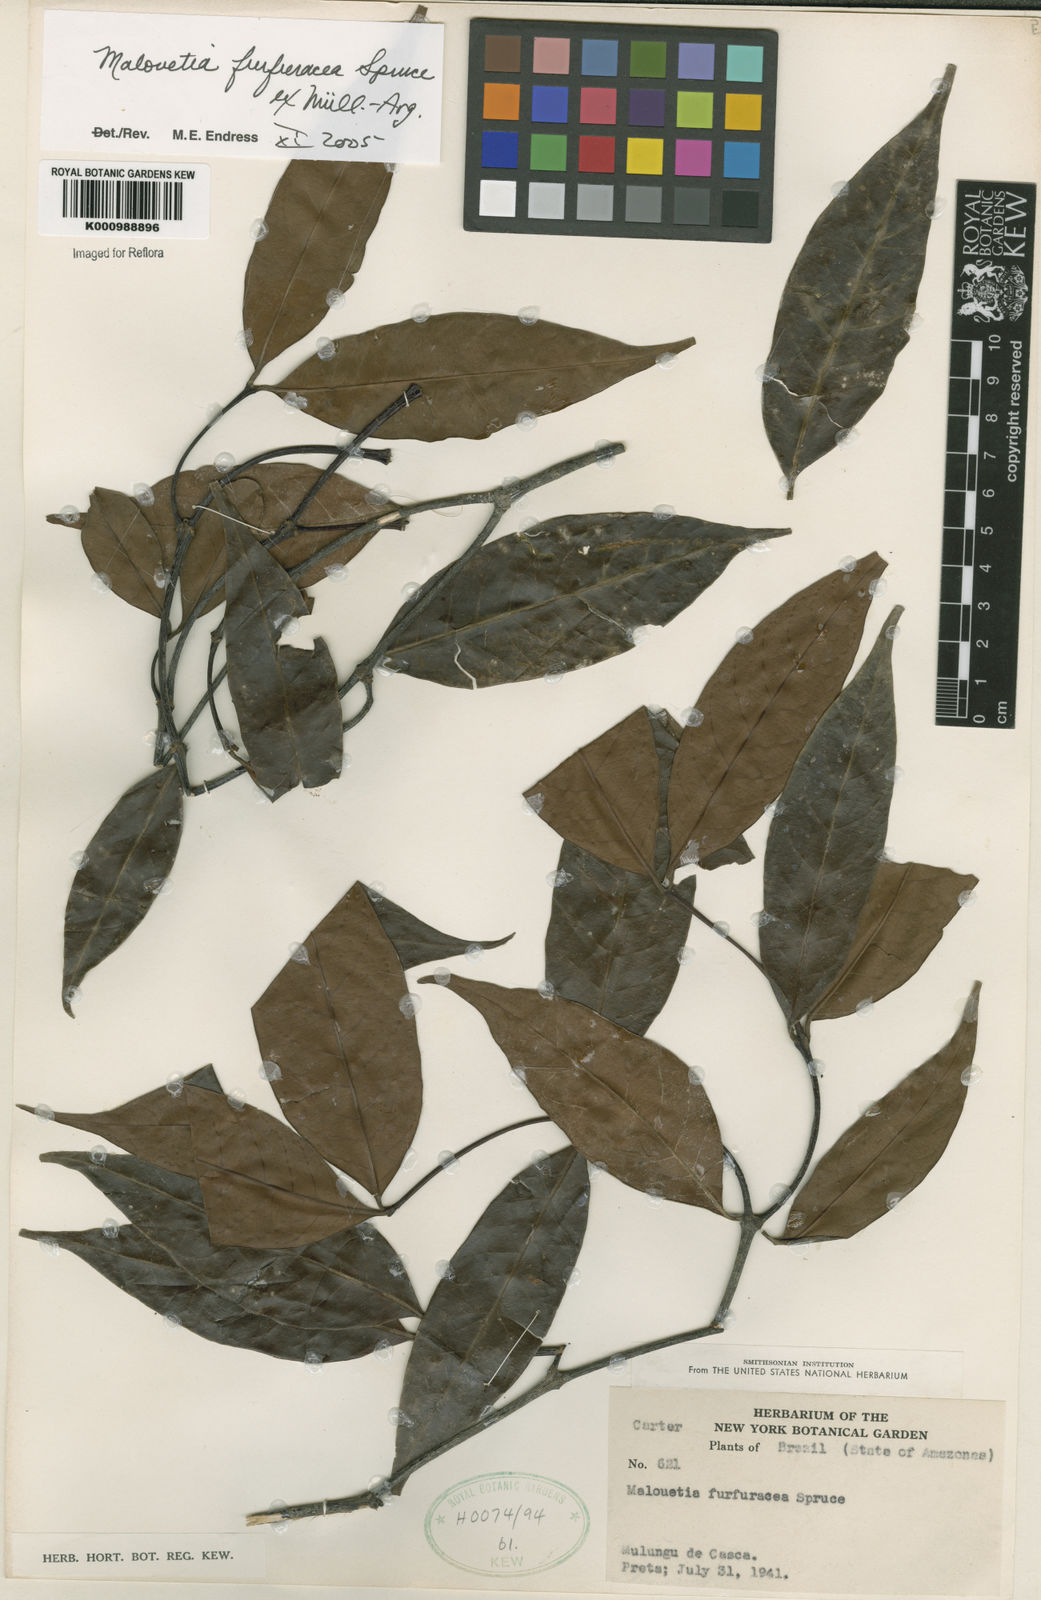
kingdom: Plantae
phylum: Tracheophyta
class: Magnoliopsida
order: Gentianales
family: Apocynaceae
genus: Malouetia
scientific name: Malouetia
